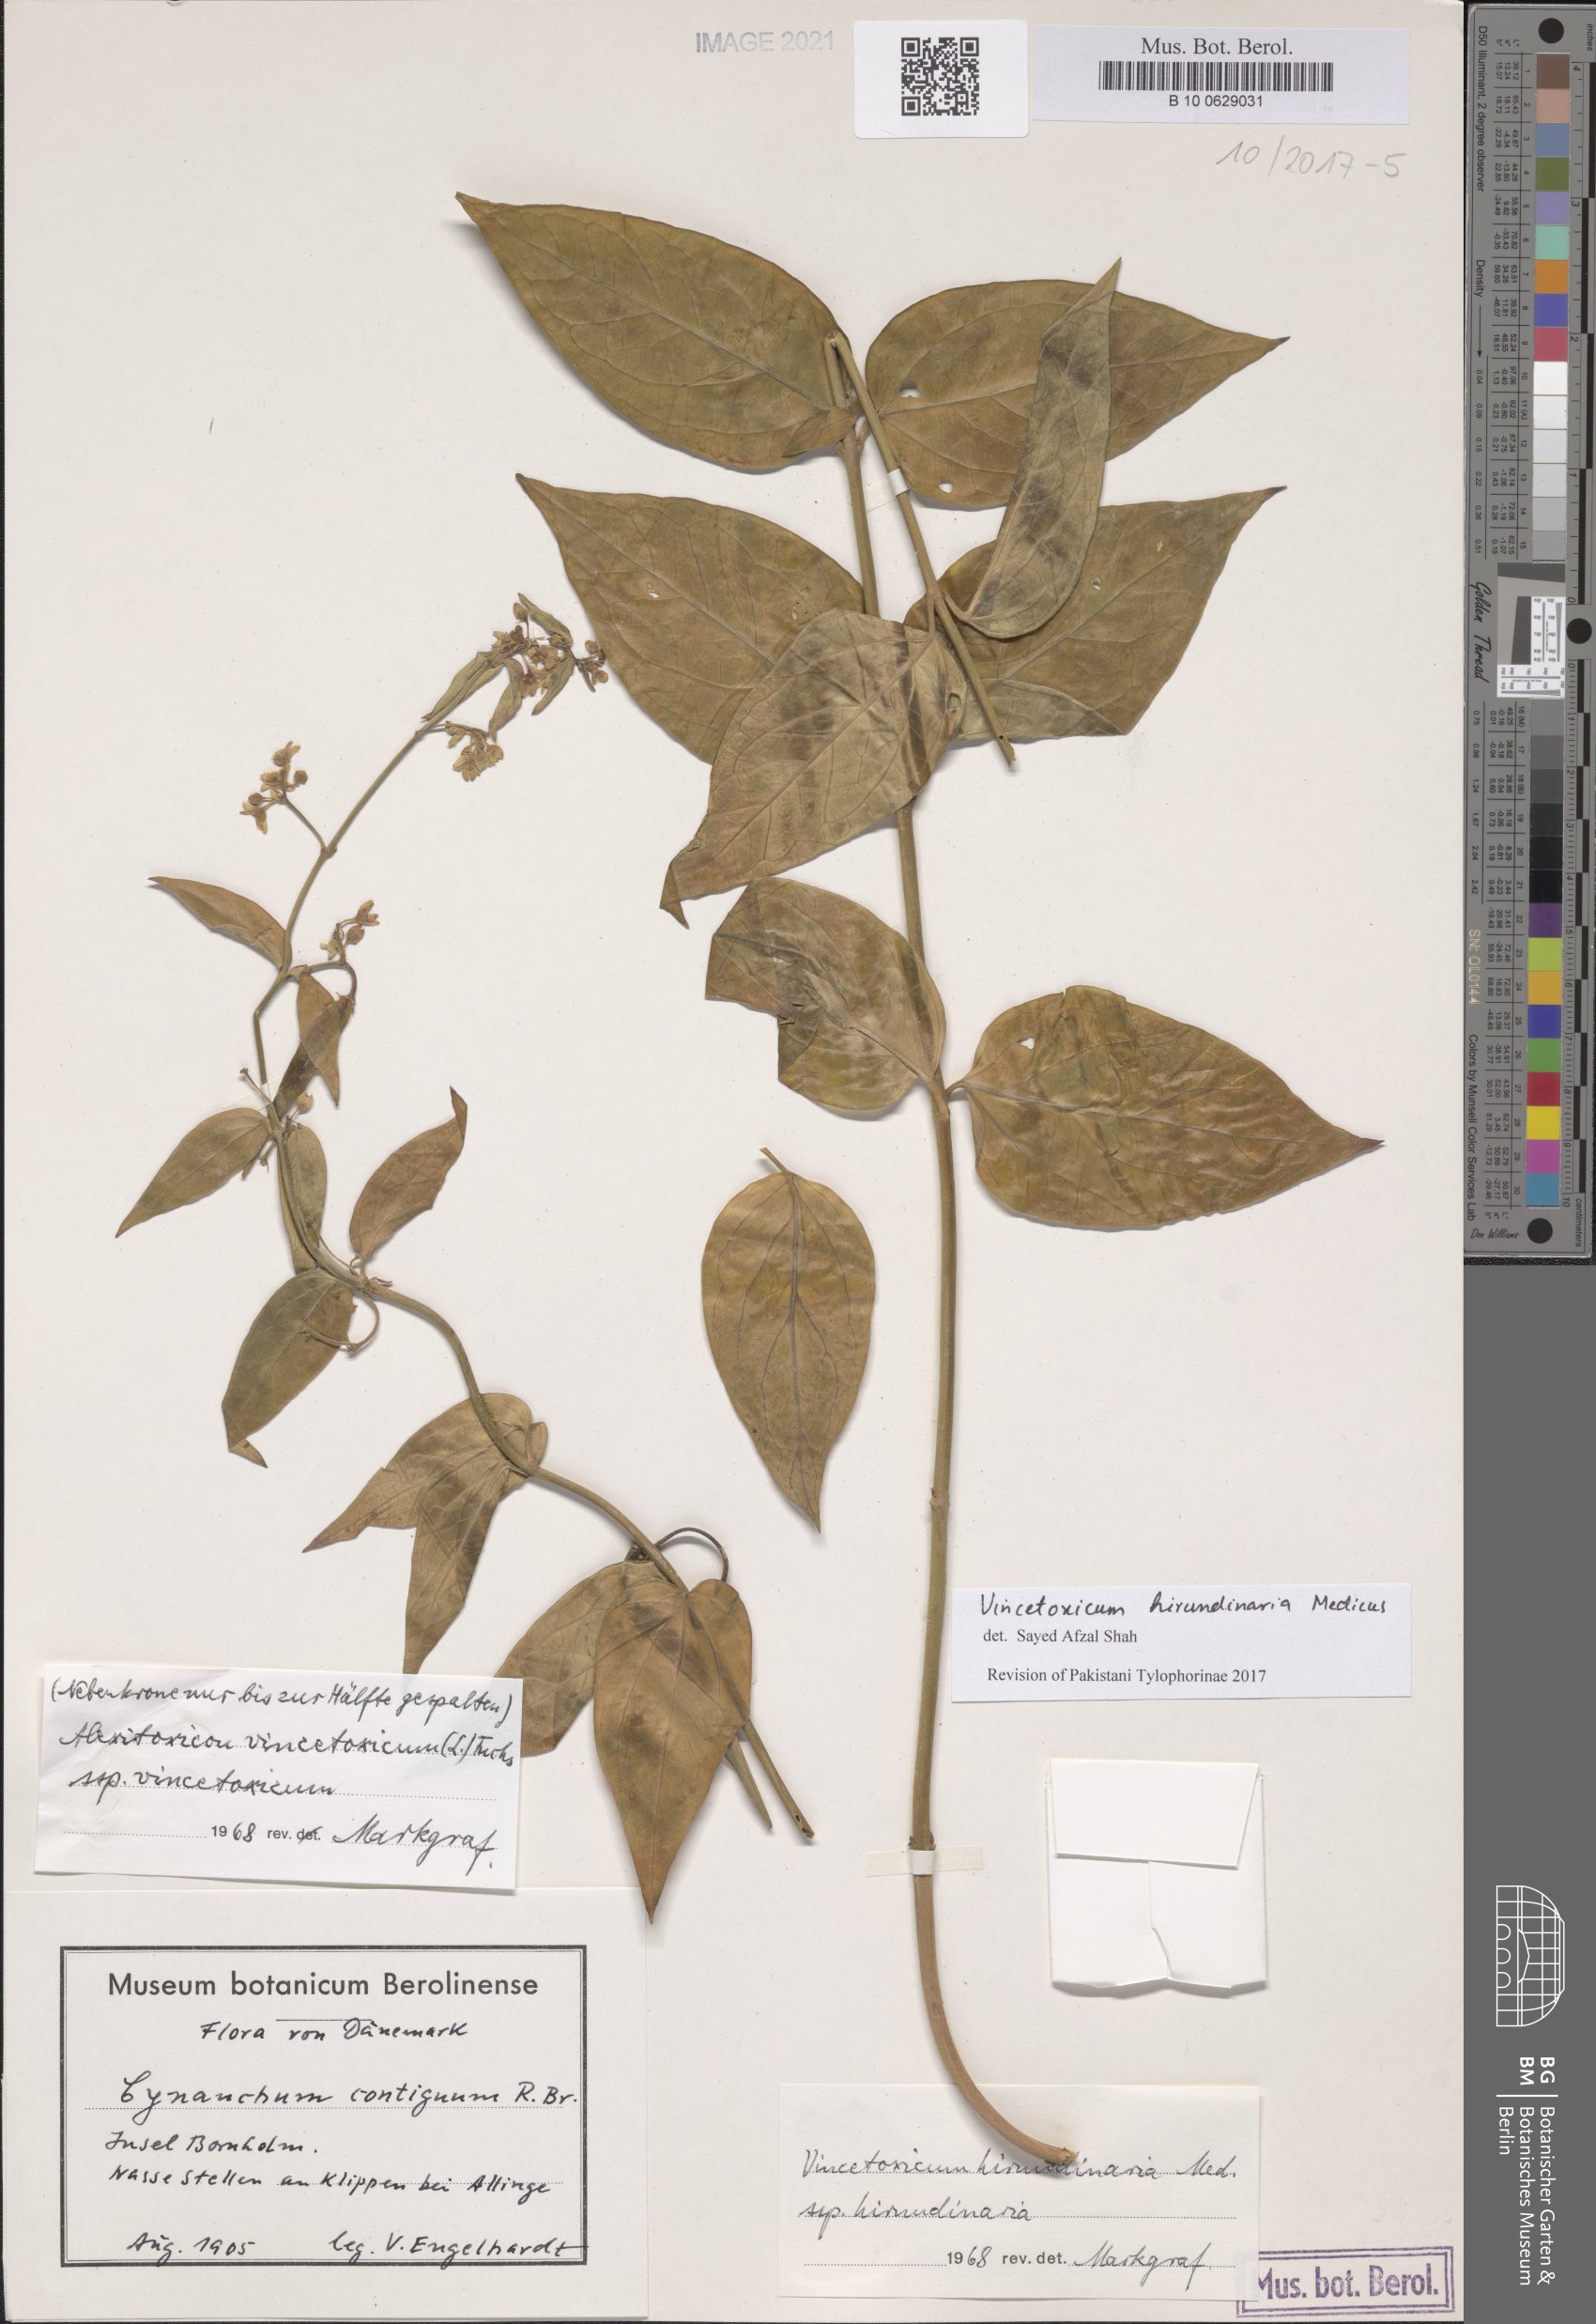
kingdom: Plantae
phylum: Tracheophyta
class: Magnoliopsida
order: Gentianales
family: Apocynaceae
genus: Vincetoxicum
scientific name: Vincetoxicum hirundinaria
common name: White swallowwort
